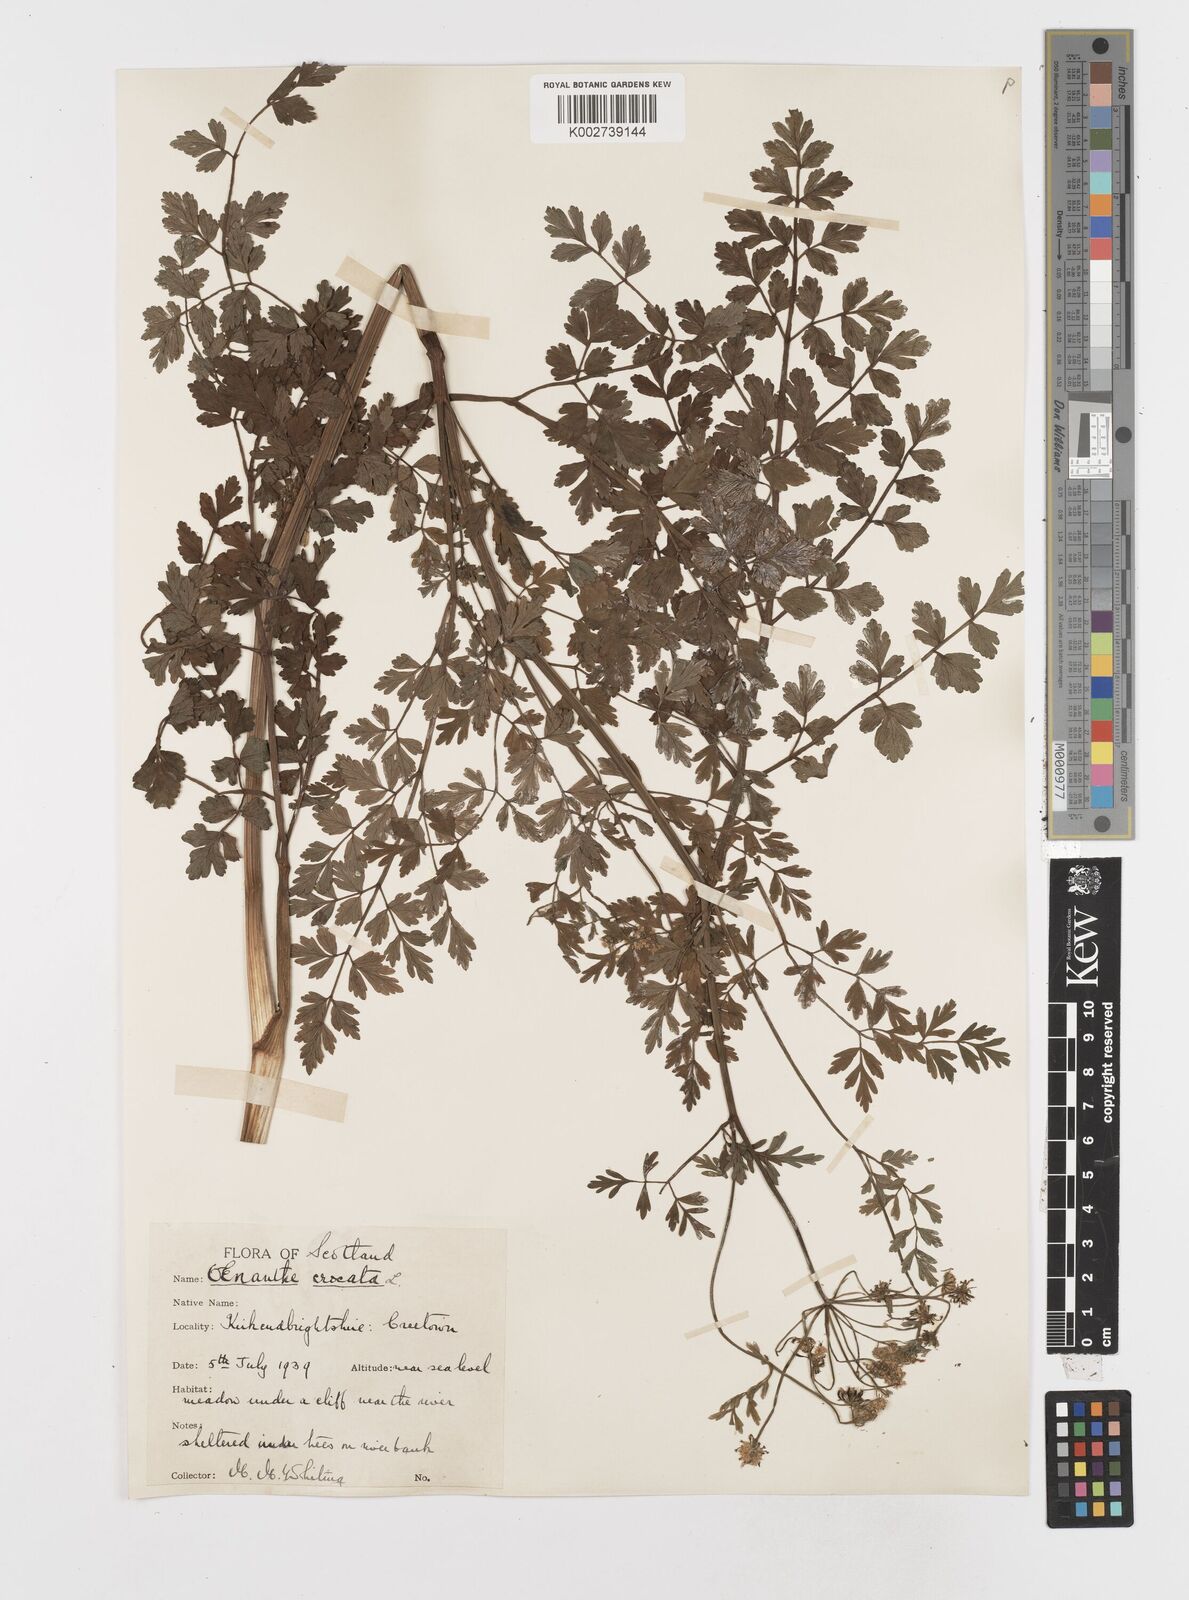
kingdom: Plantae
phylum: Tracheophyta
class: Magnoliopsida
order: Apiales
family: Apiaceae
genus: Oenanthe
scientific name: Oenanthe crocata
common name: Hemlock water-dropwort
